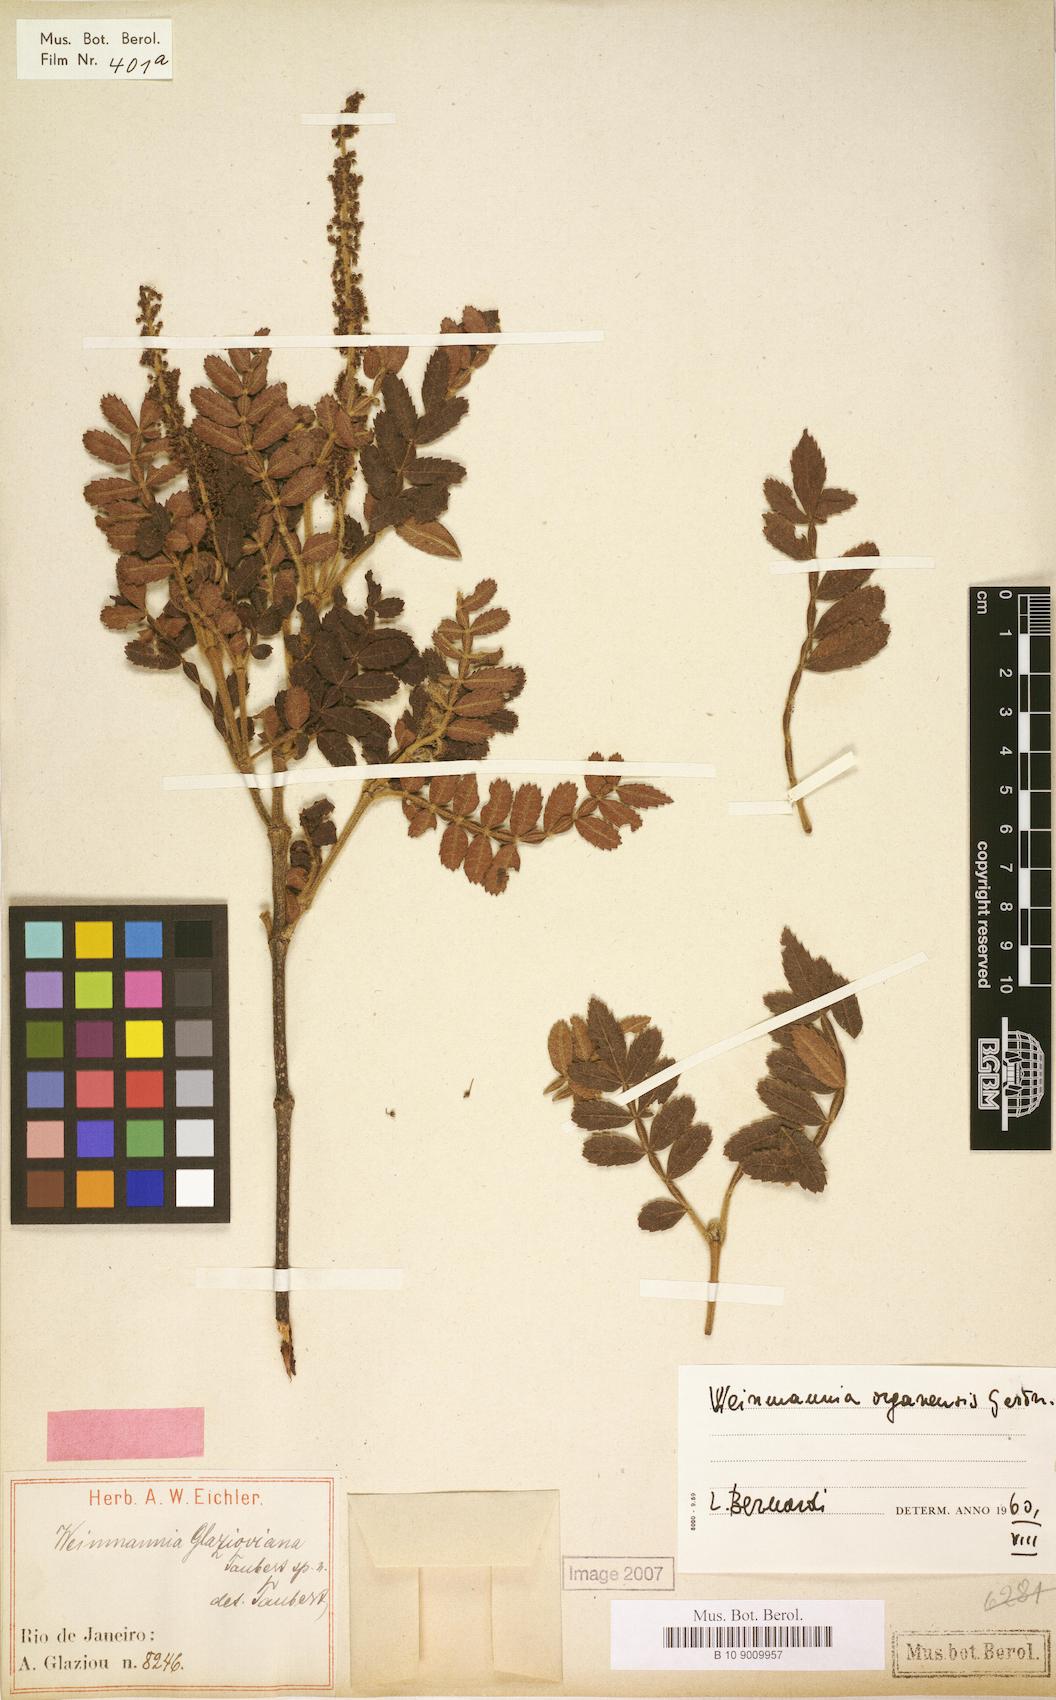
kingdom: Plantae
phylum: Tracheophyta
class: Magnoliopsida
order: Oxalidales
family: Cunoniaceae
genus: Weinmannia
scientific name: Weinmannia organensis
